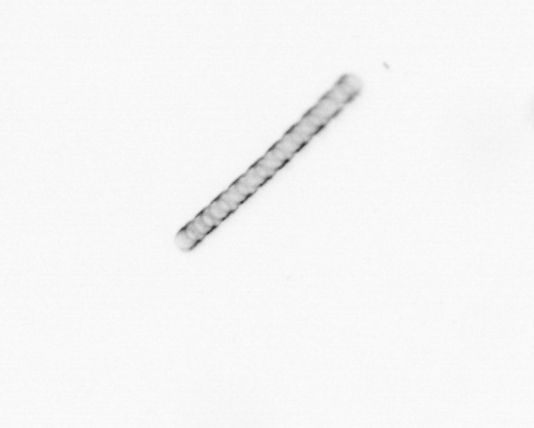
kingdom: Chromista
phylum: Ochrophyta
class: Bacillariophyceae
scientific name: Bacillariophyceae
